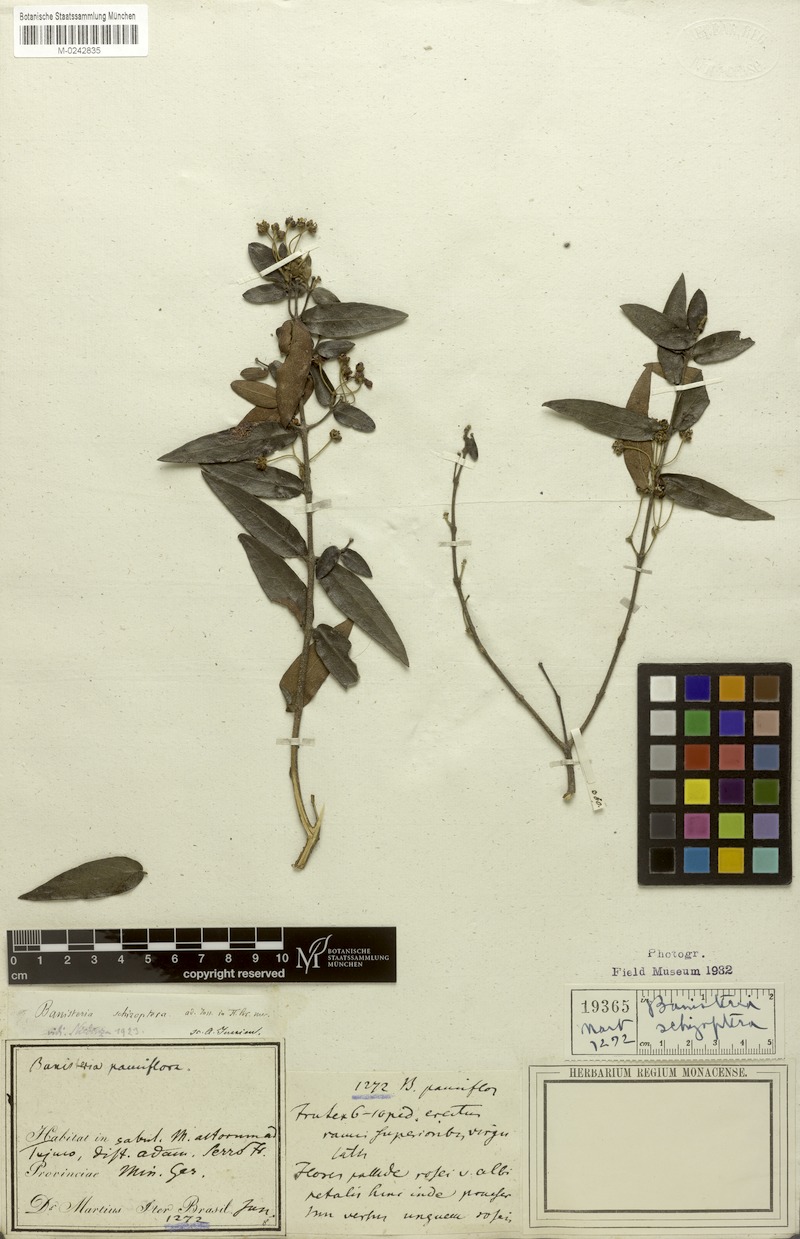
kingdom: Plantae
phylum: Tracheophyta
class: Magnoliopsida
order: Malpighiales
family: Malpighiaceae
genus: Banisteriopsis
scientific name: Banisteriopsis schizoptera
